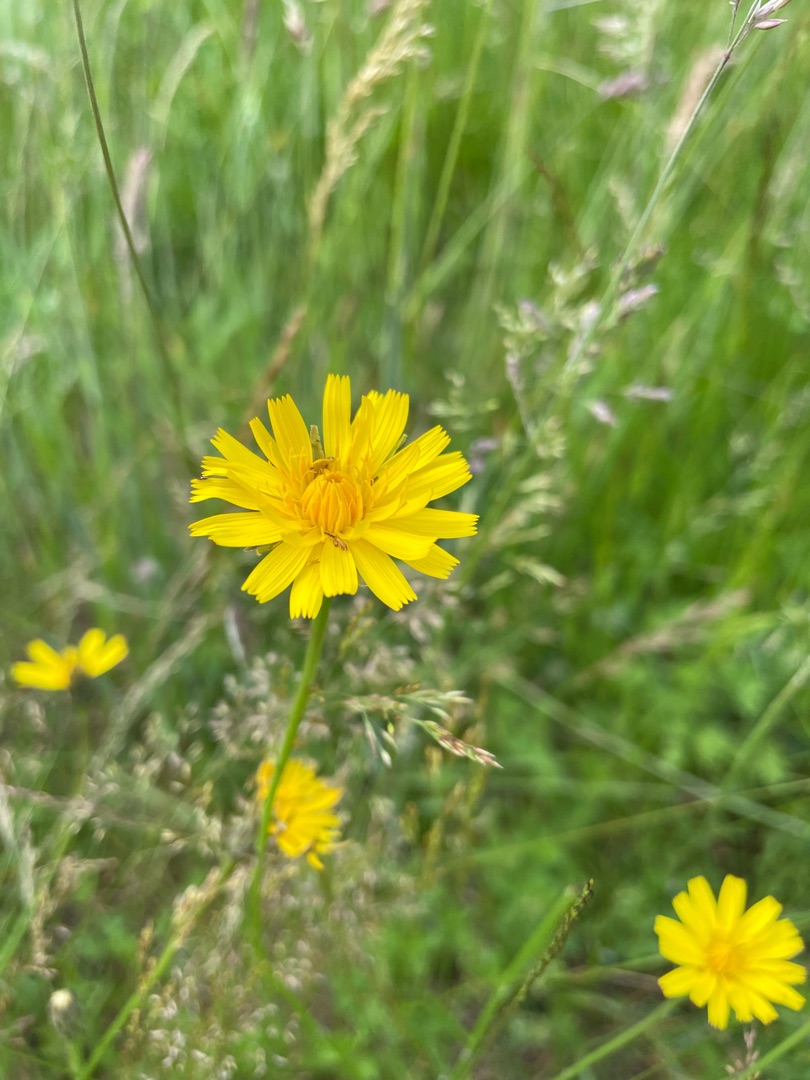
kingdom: Plantae
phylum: Tracheophyta
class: Magnoliopsida
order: Asterales
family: Asteraceae
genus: Hypochaeris
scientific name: Hypochaeris radicata
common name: Almindelig kongepen
